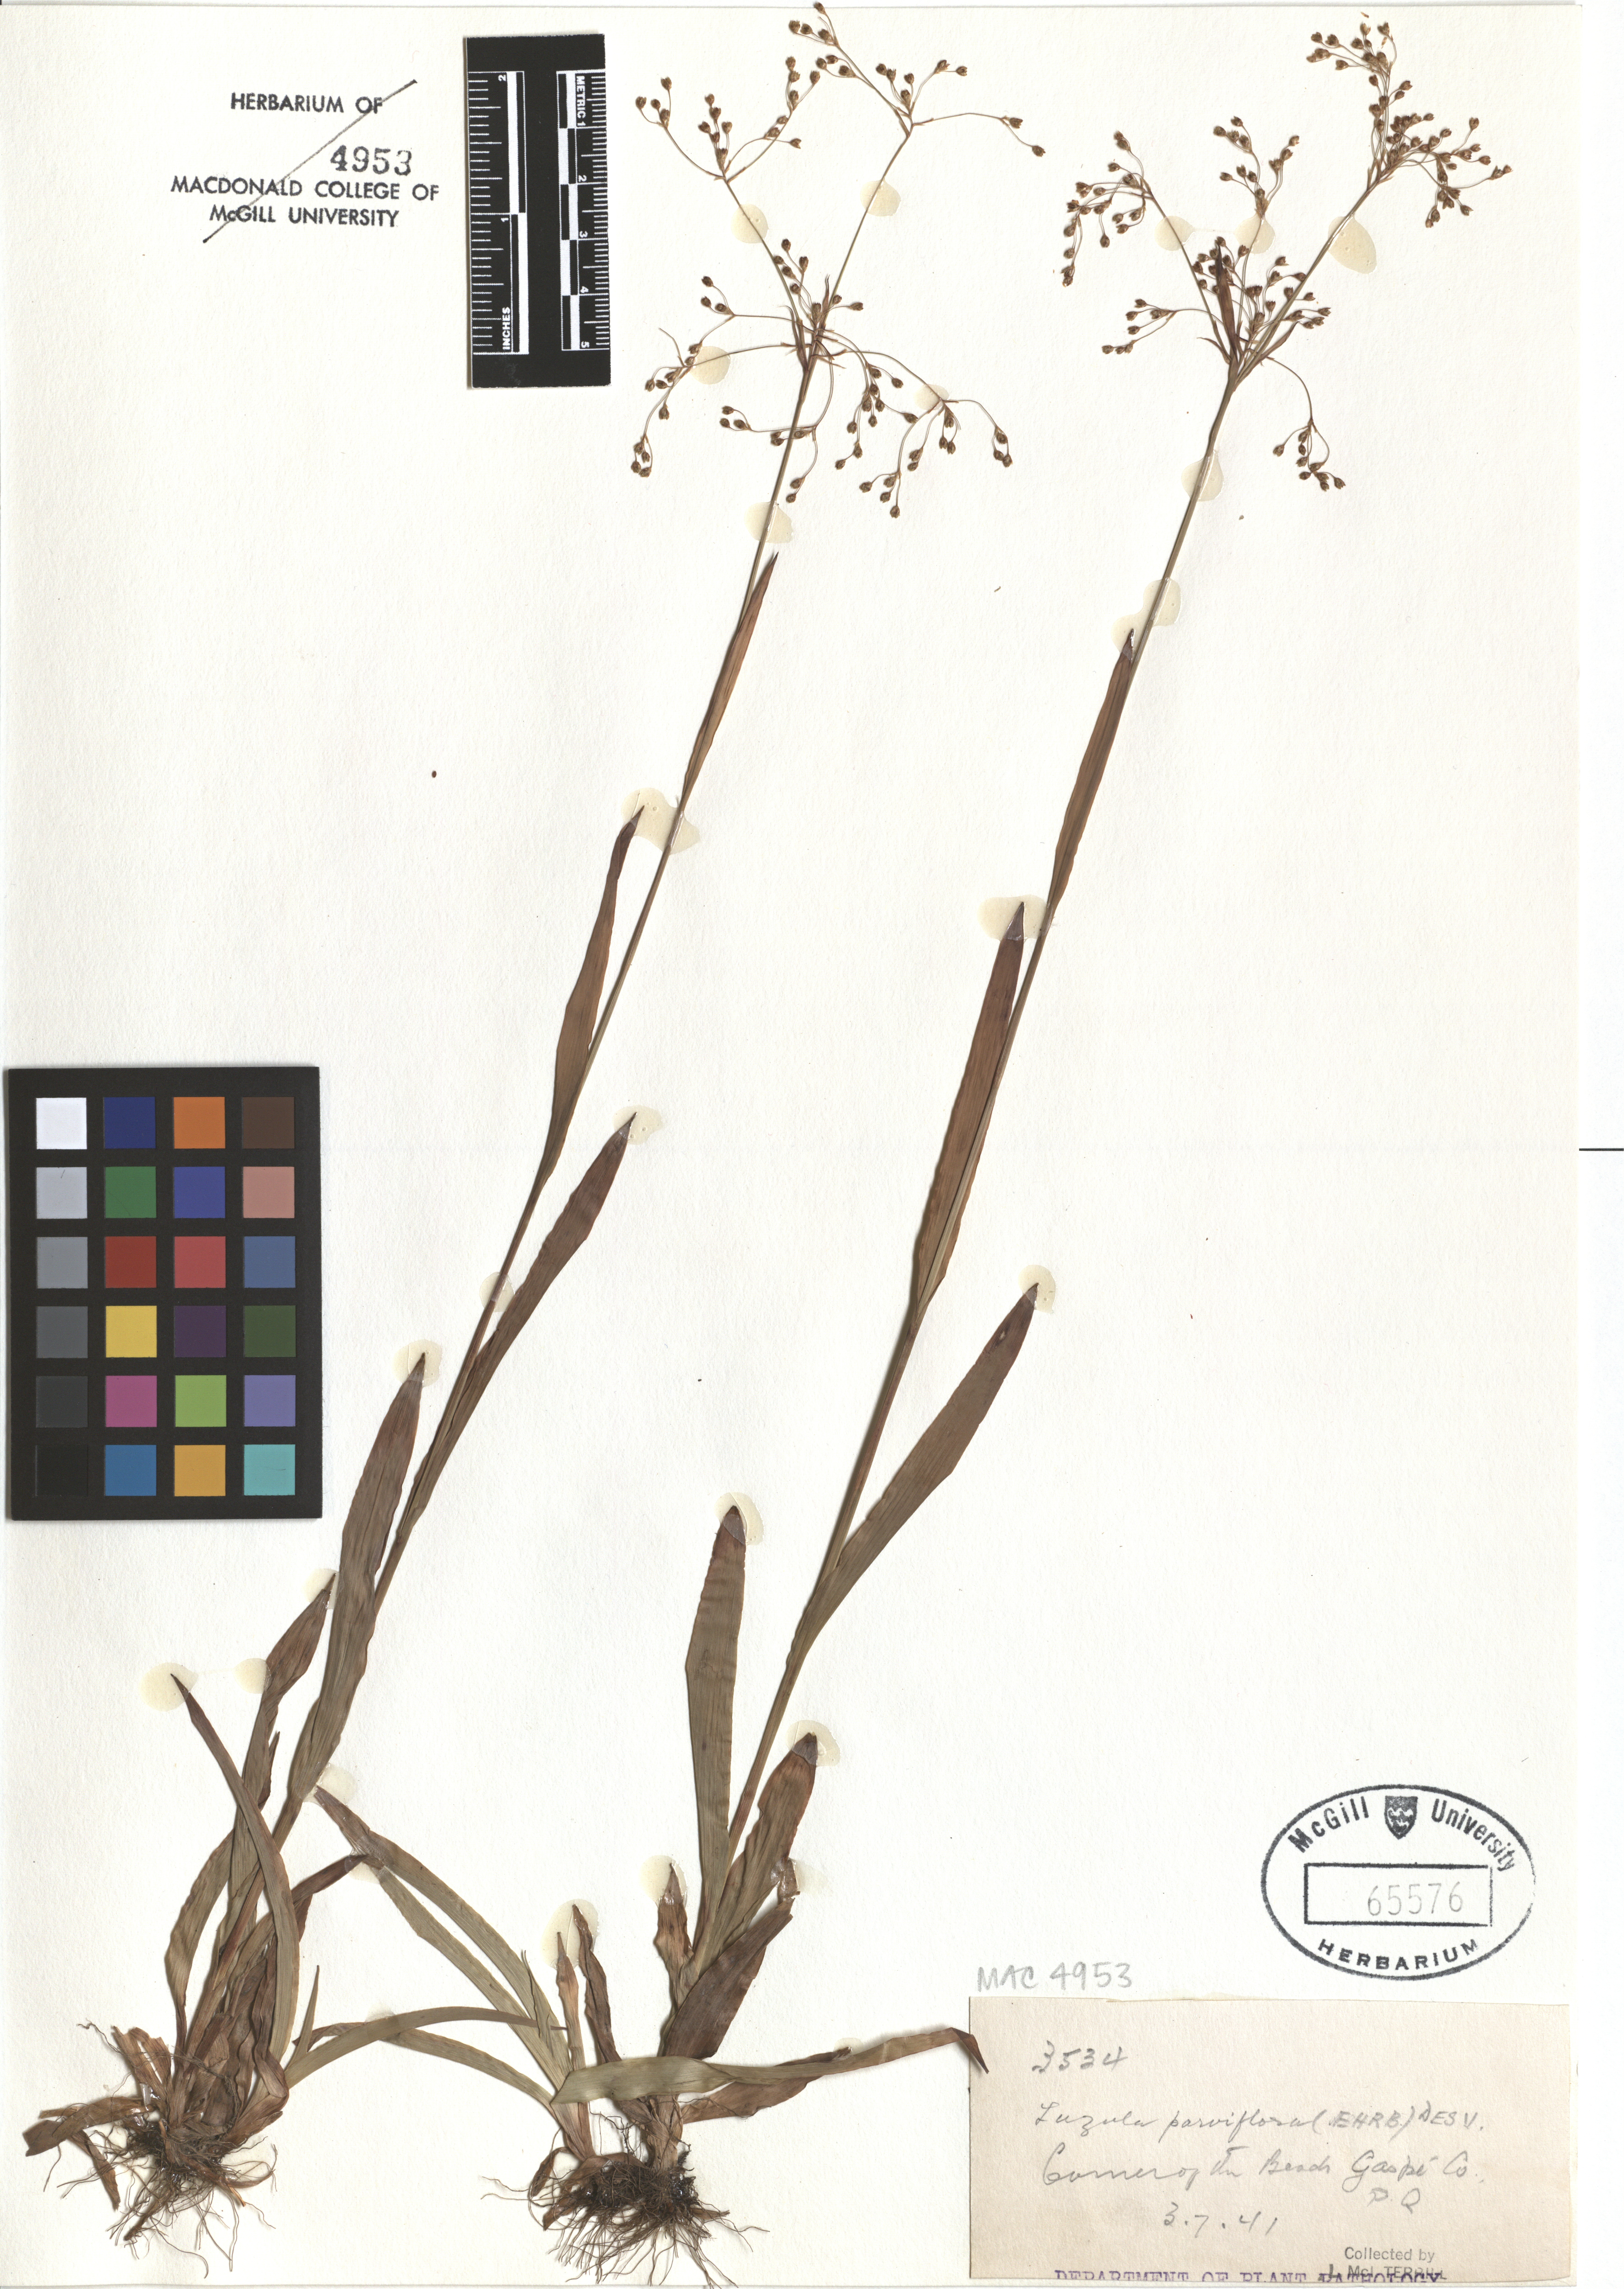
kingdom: Plantae
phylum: Tracheophyta
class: Liliopsida
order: Poales
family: Juncaceae
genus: Luzula
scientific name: Luzula parviflora
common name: Millet woodrush
